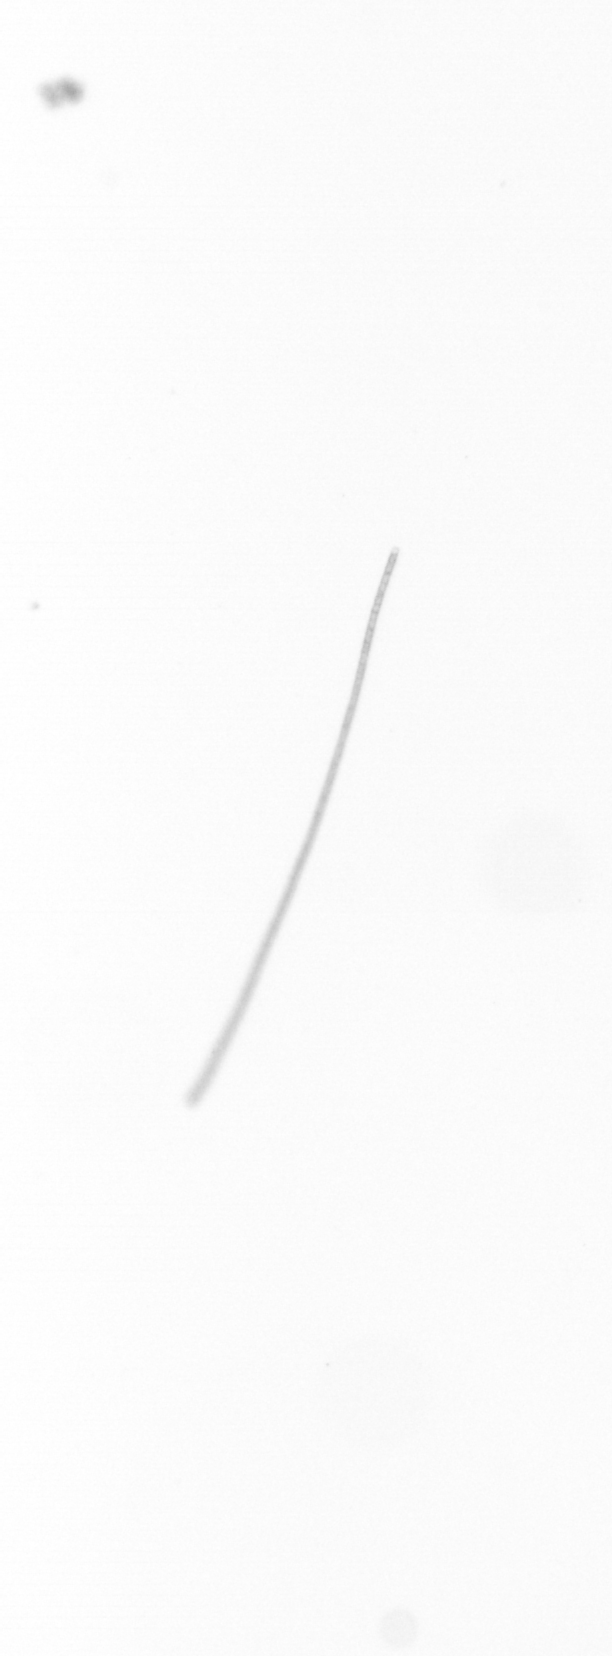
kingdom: Chromista
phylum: Ochrophyta
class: Bacillariophyceae
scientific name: Bacillariophyceae
